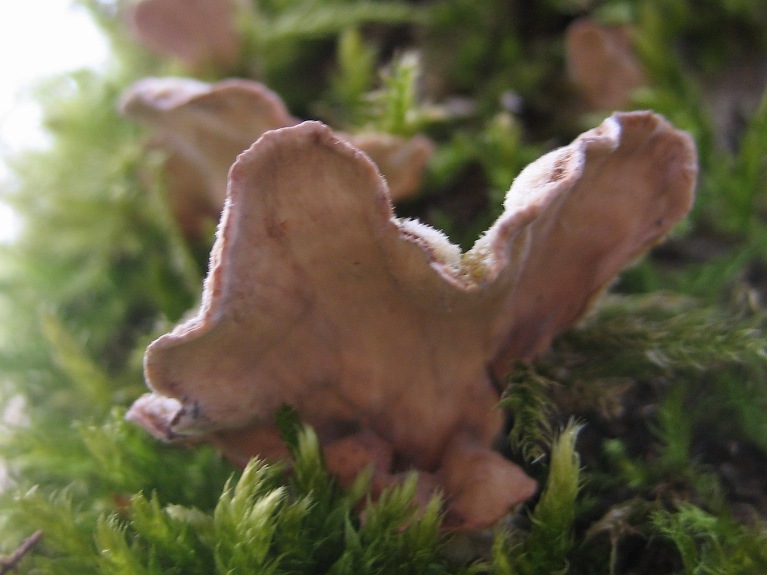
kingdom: Fungi
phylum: Basidiomycota
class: Agaricomycetes
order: Russulales
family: Stereaceae
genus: Stereum
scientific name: Stereum hirsutum
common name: håret lædersvamp
